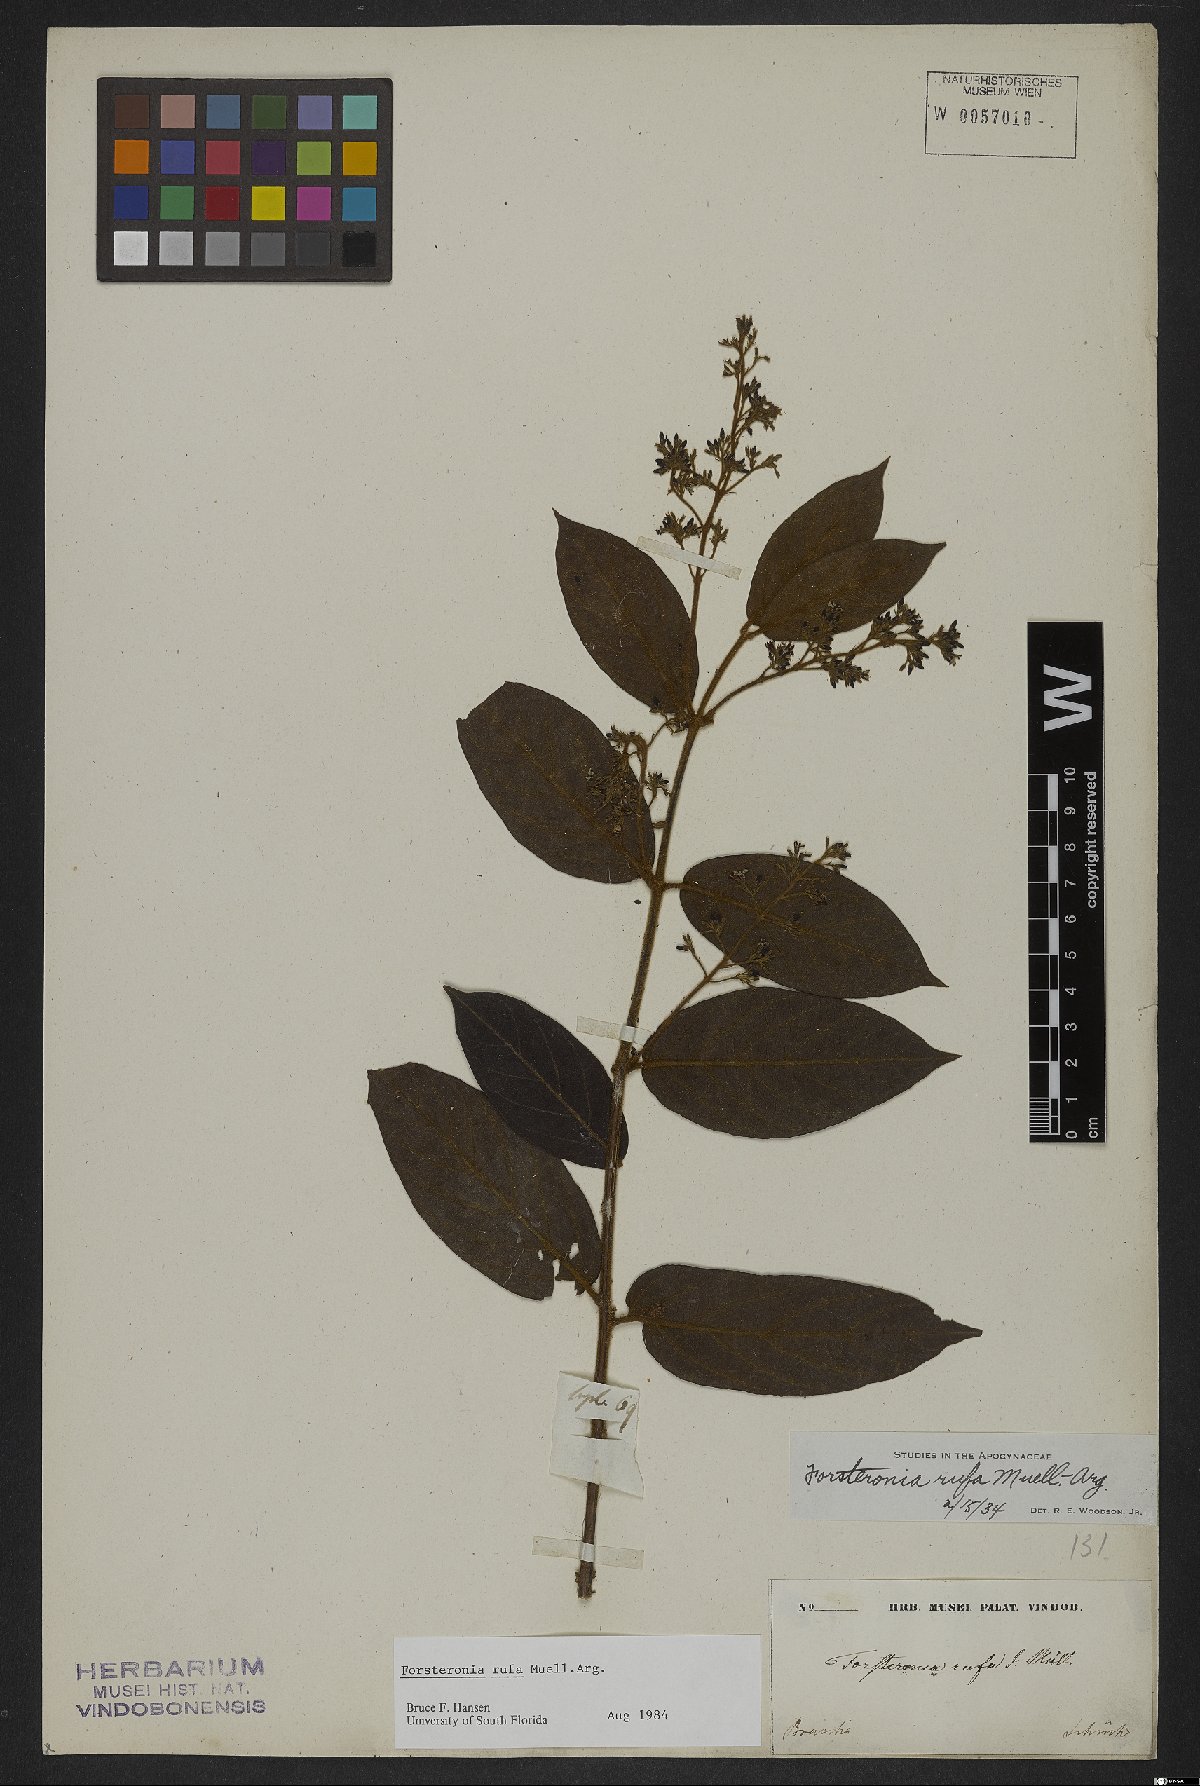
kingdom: Plantae
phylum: Tracheophyta
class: Magnoliopsida
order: Gentianales
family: Apocynaceae
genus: Forsteronia
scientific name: Forsteronia rufa
